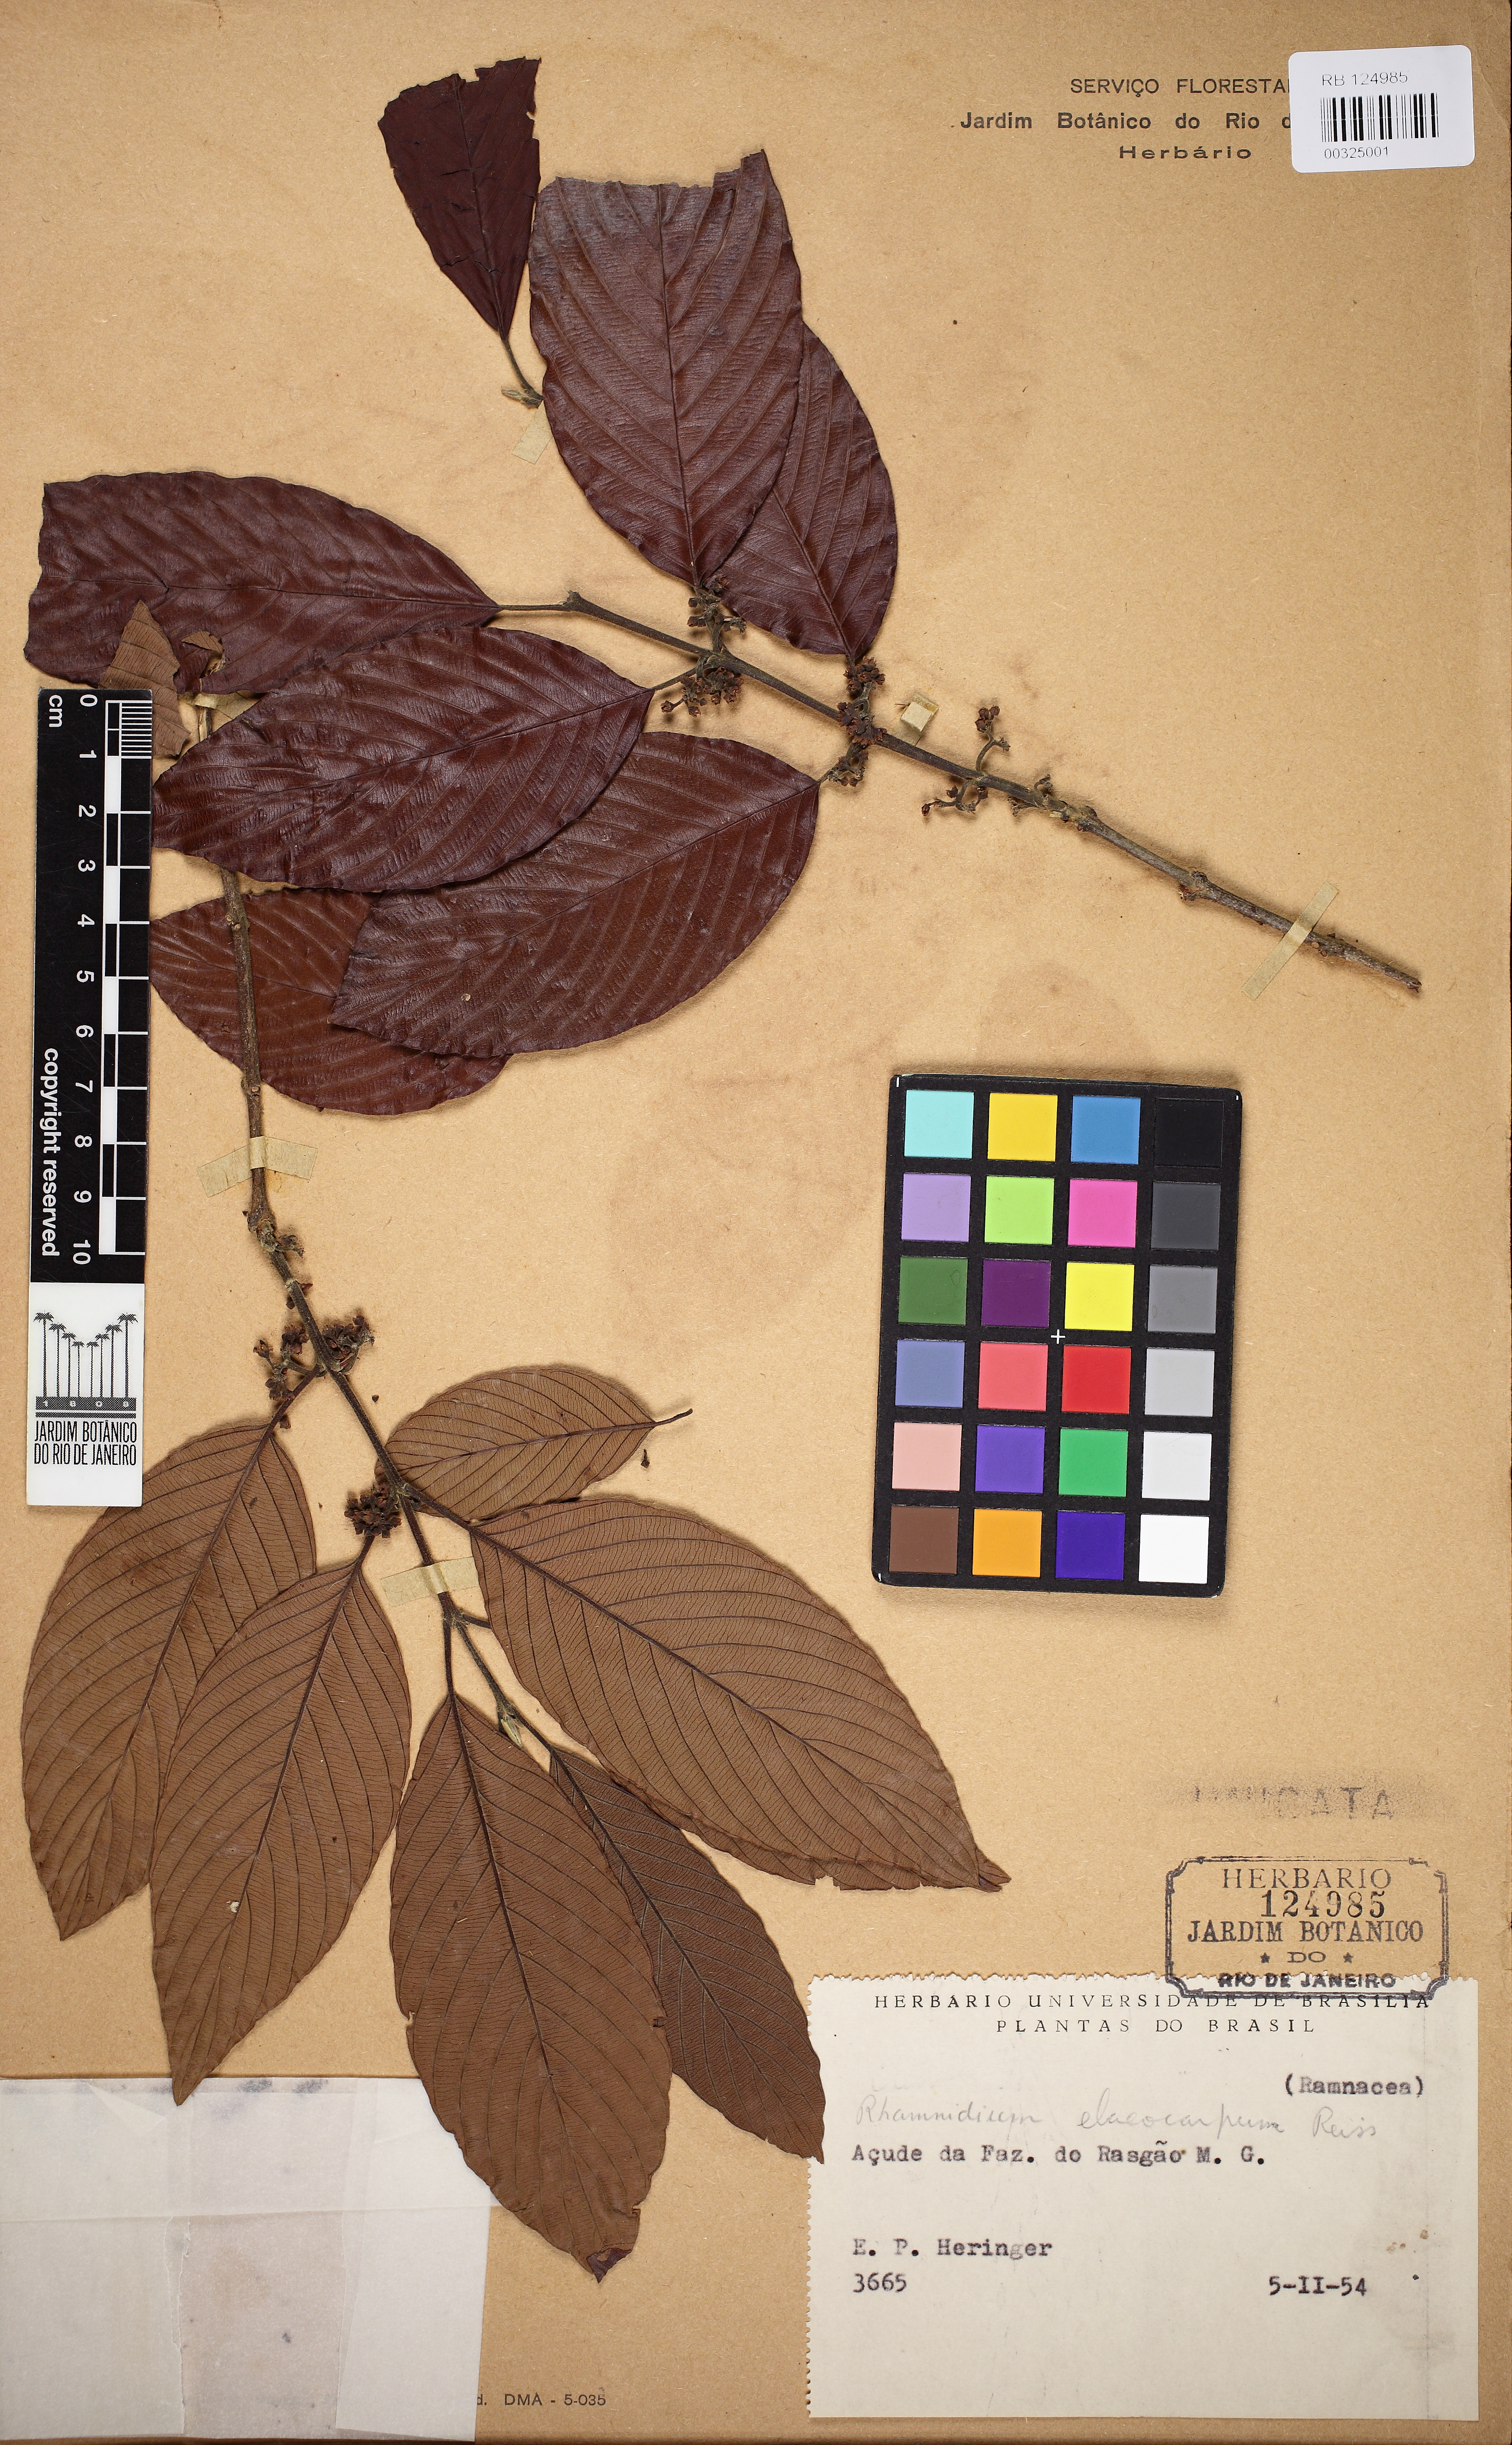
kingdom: Plantae
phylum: Tracheophyta
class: Magnoliopsida
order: Rosales
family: Rhamnaceae
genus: Rhamnidium
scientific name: Rhamnidium elaeocarpum
